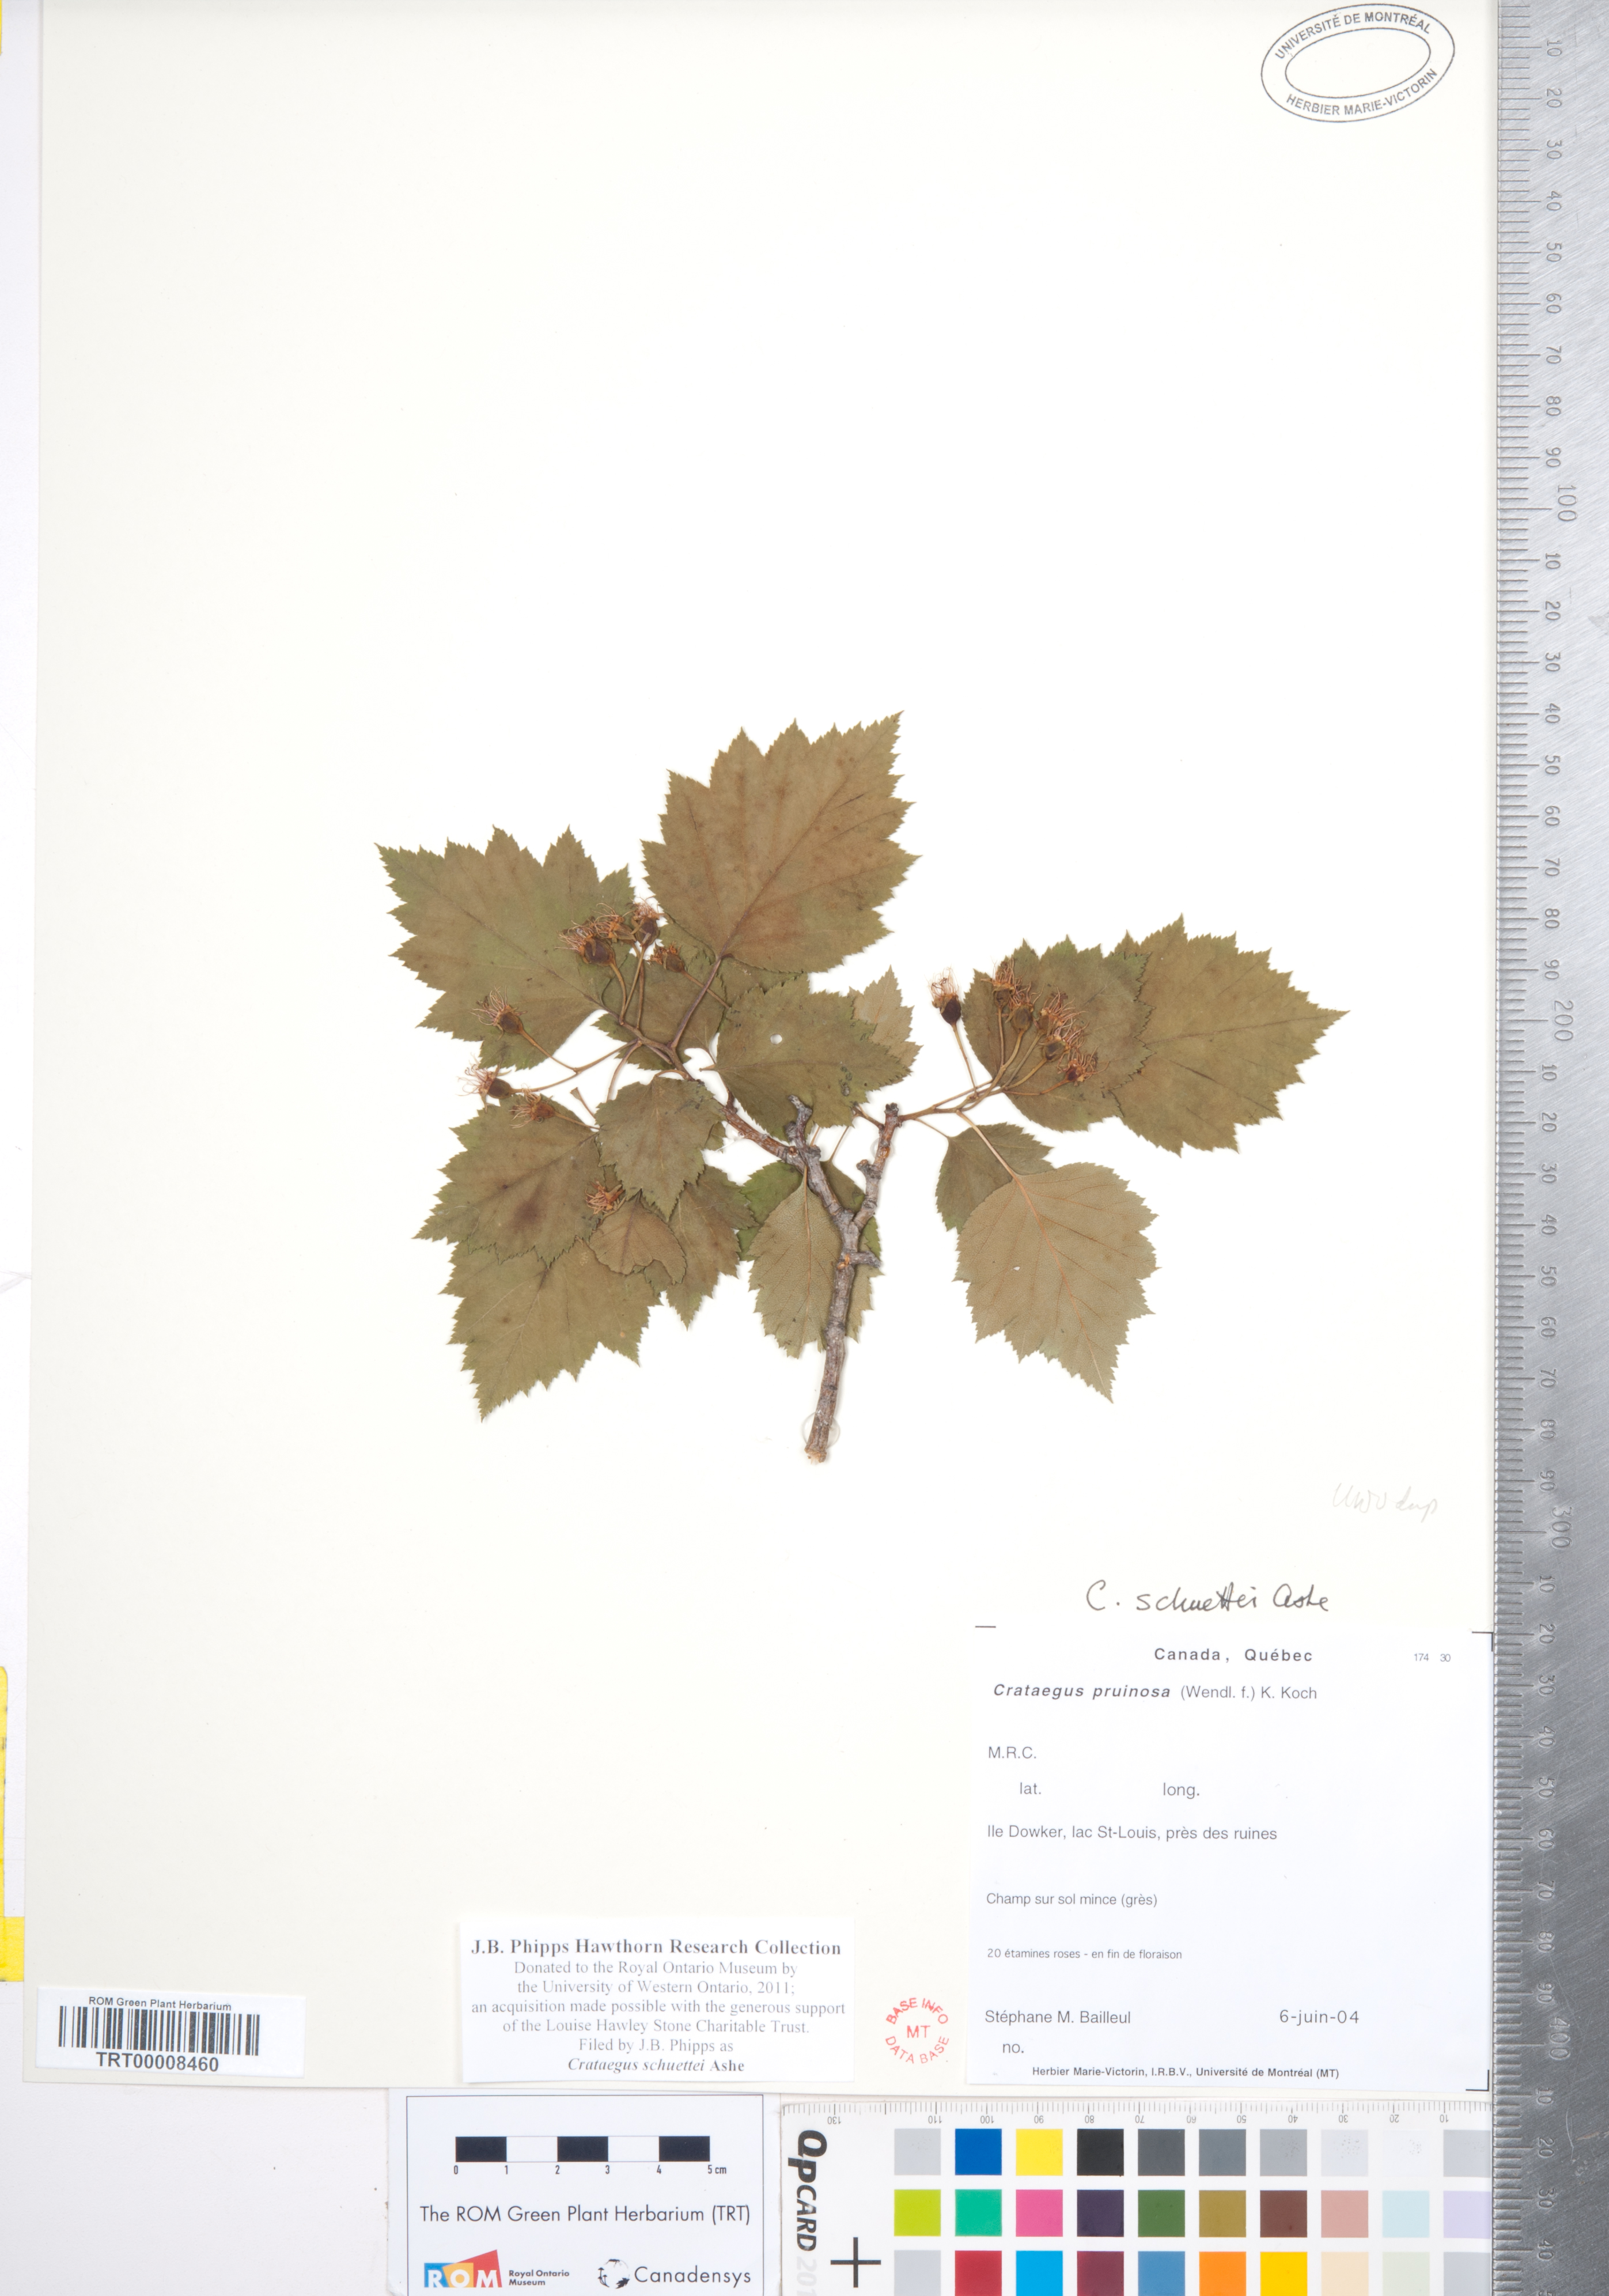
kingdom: Plantae
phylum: Tracheophyta
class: Magnoliopsida
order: Rosales
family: Rosaceae
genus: Crataegus
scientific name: Crataegus schuettei
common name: Schuette's hawthorn
